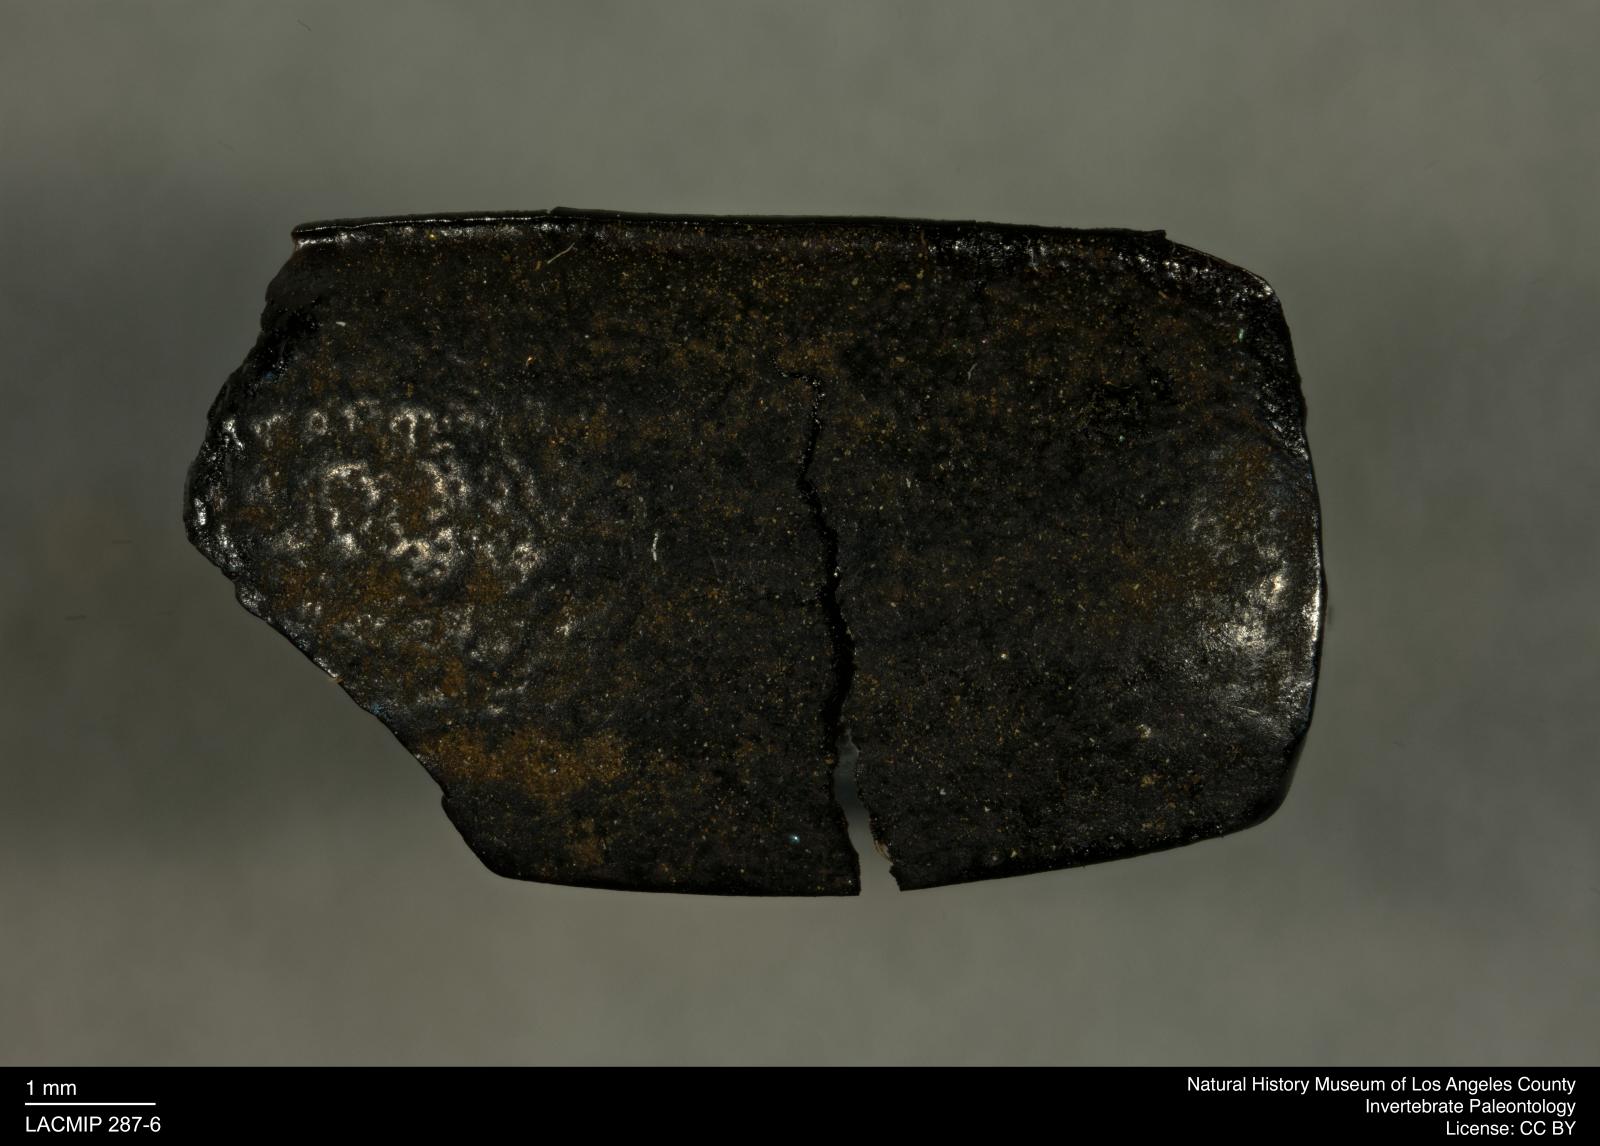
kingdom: Animalia
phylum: Arthropoda
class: Insecta
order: Coleoptera
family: Tenebrionidae
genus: Coniontis
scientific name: Coniontis abdominalis
